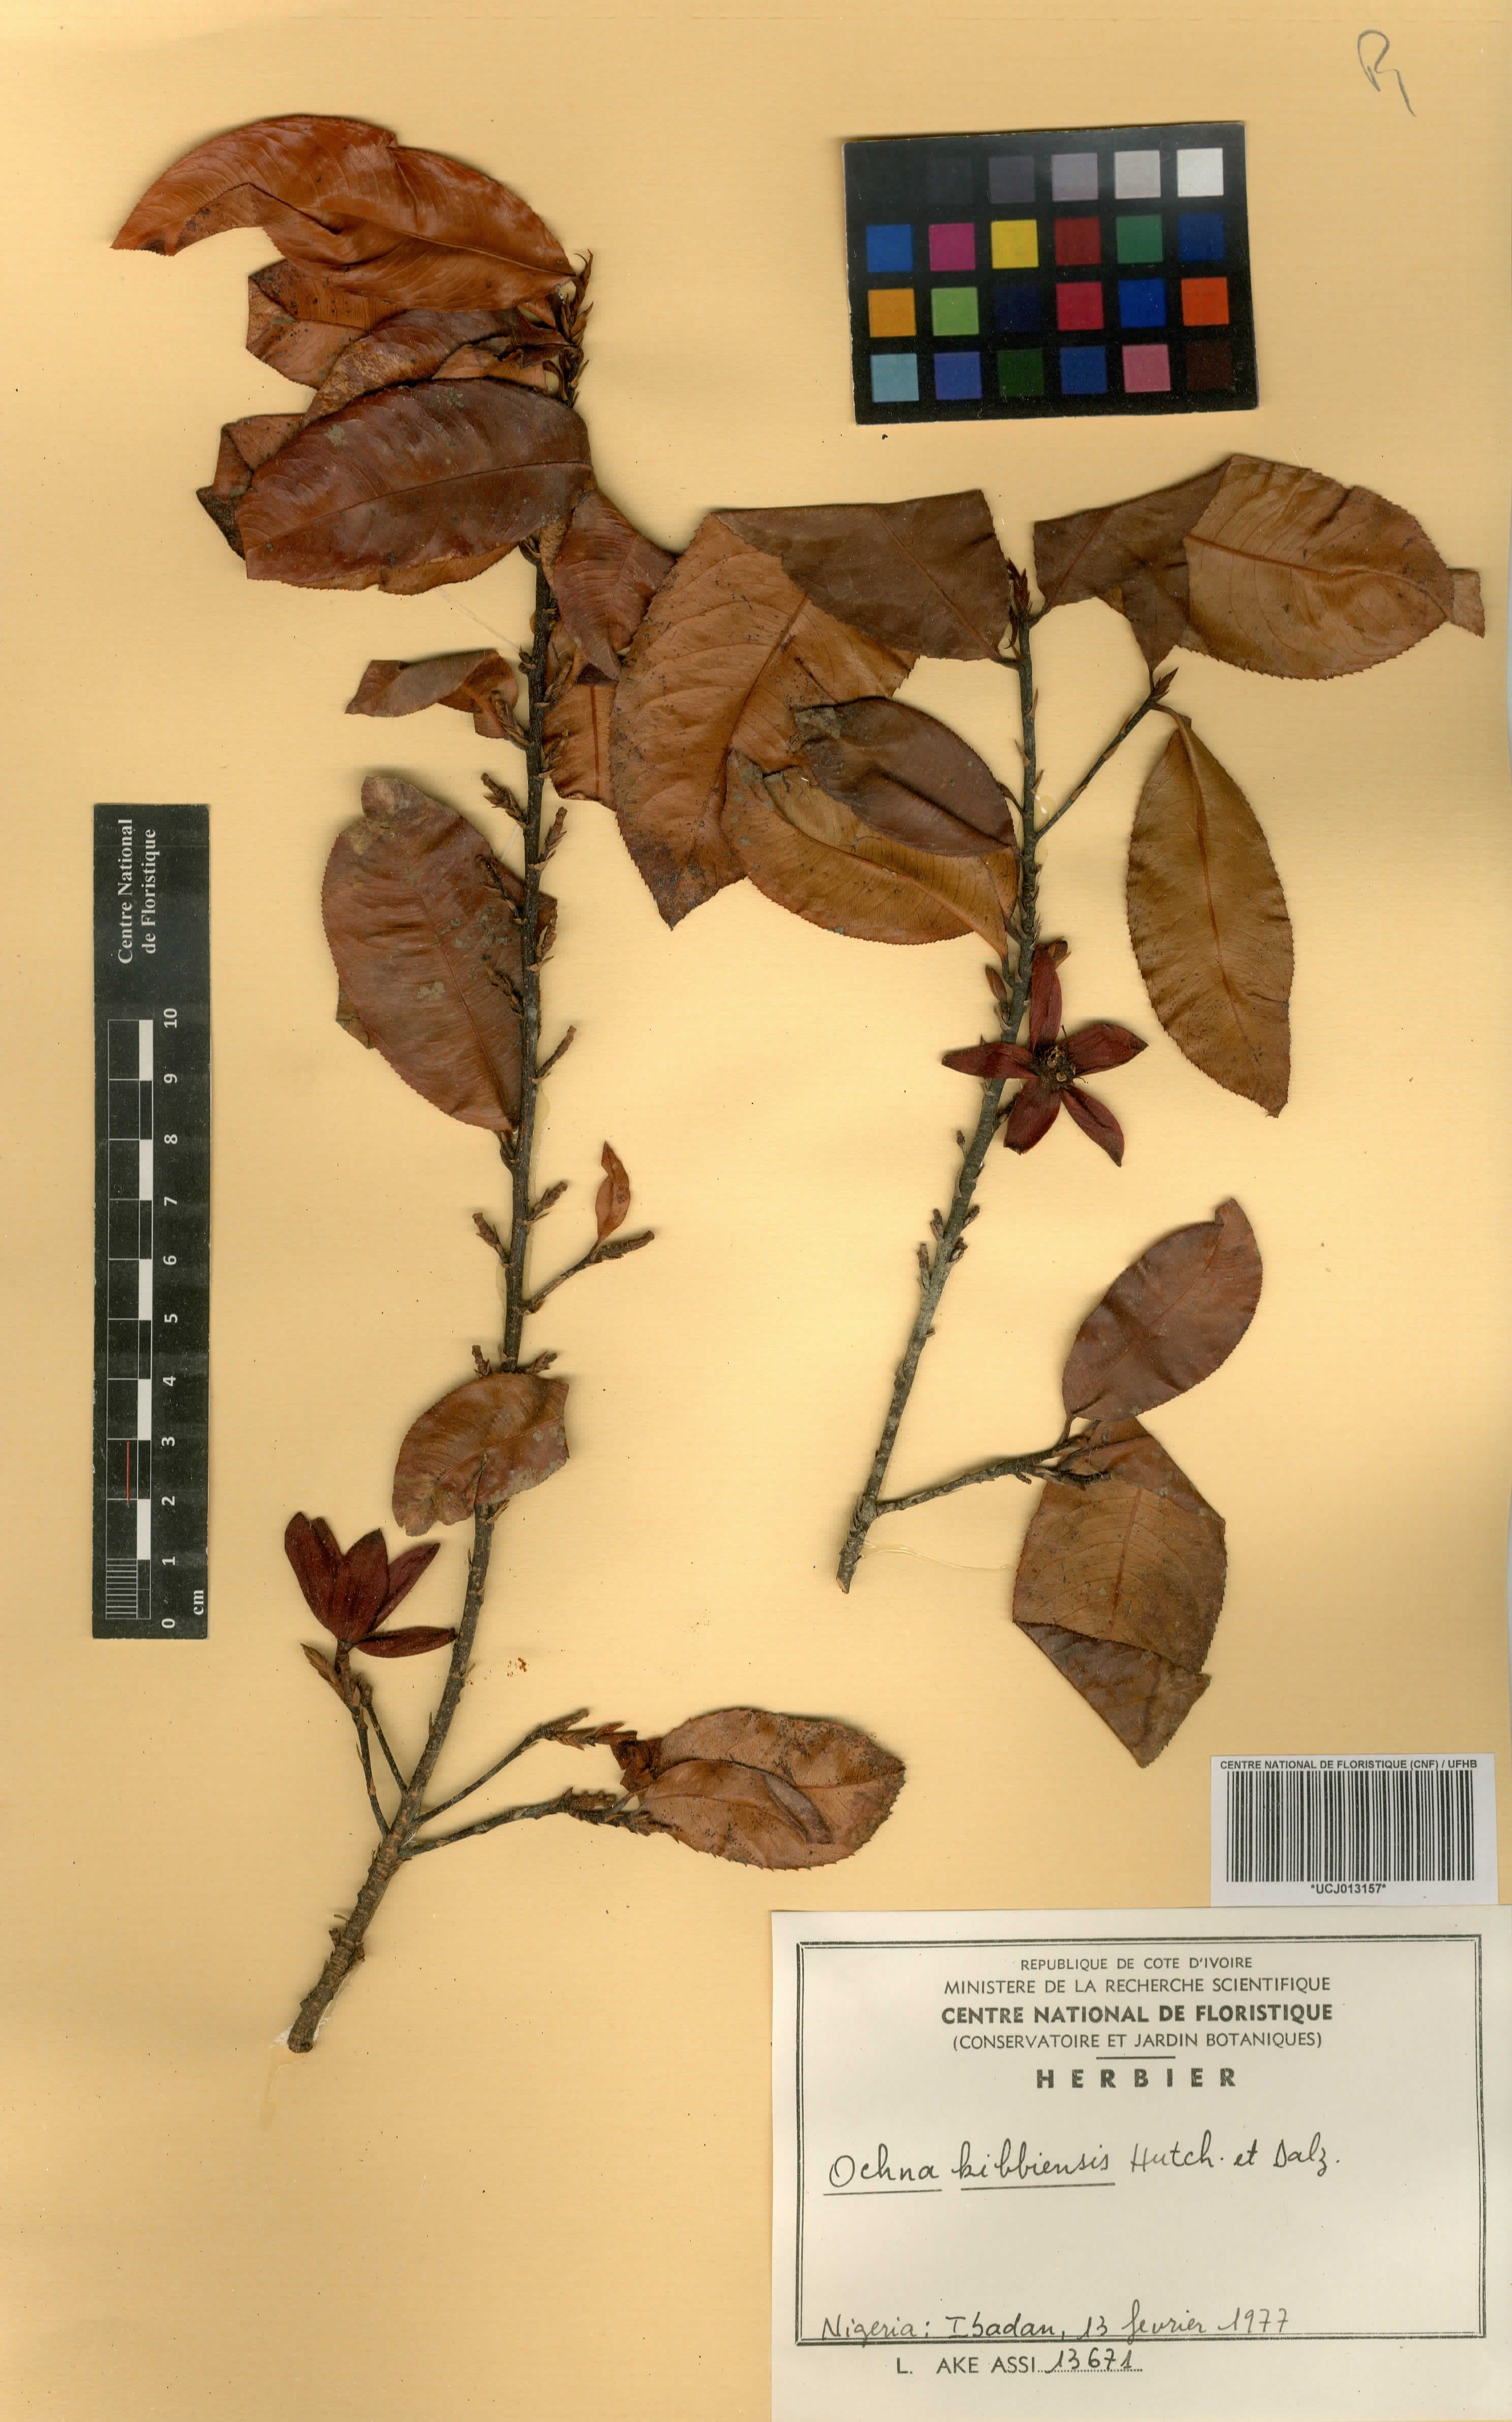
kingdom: Plantae
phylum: Tracheophyta
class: Magnoliopsida
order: Malpighiales
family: Ochnaceae
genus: Ochna
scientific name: Ochna kibbiensis
